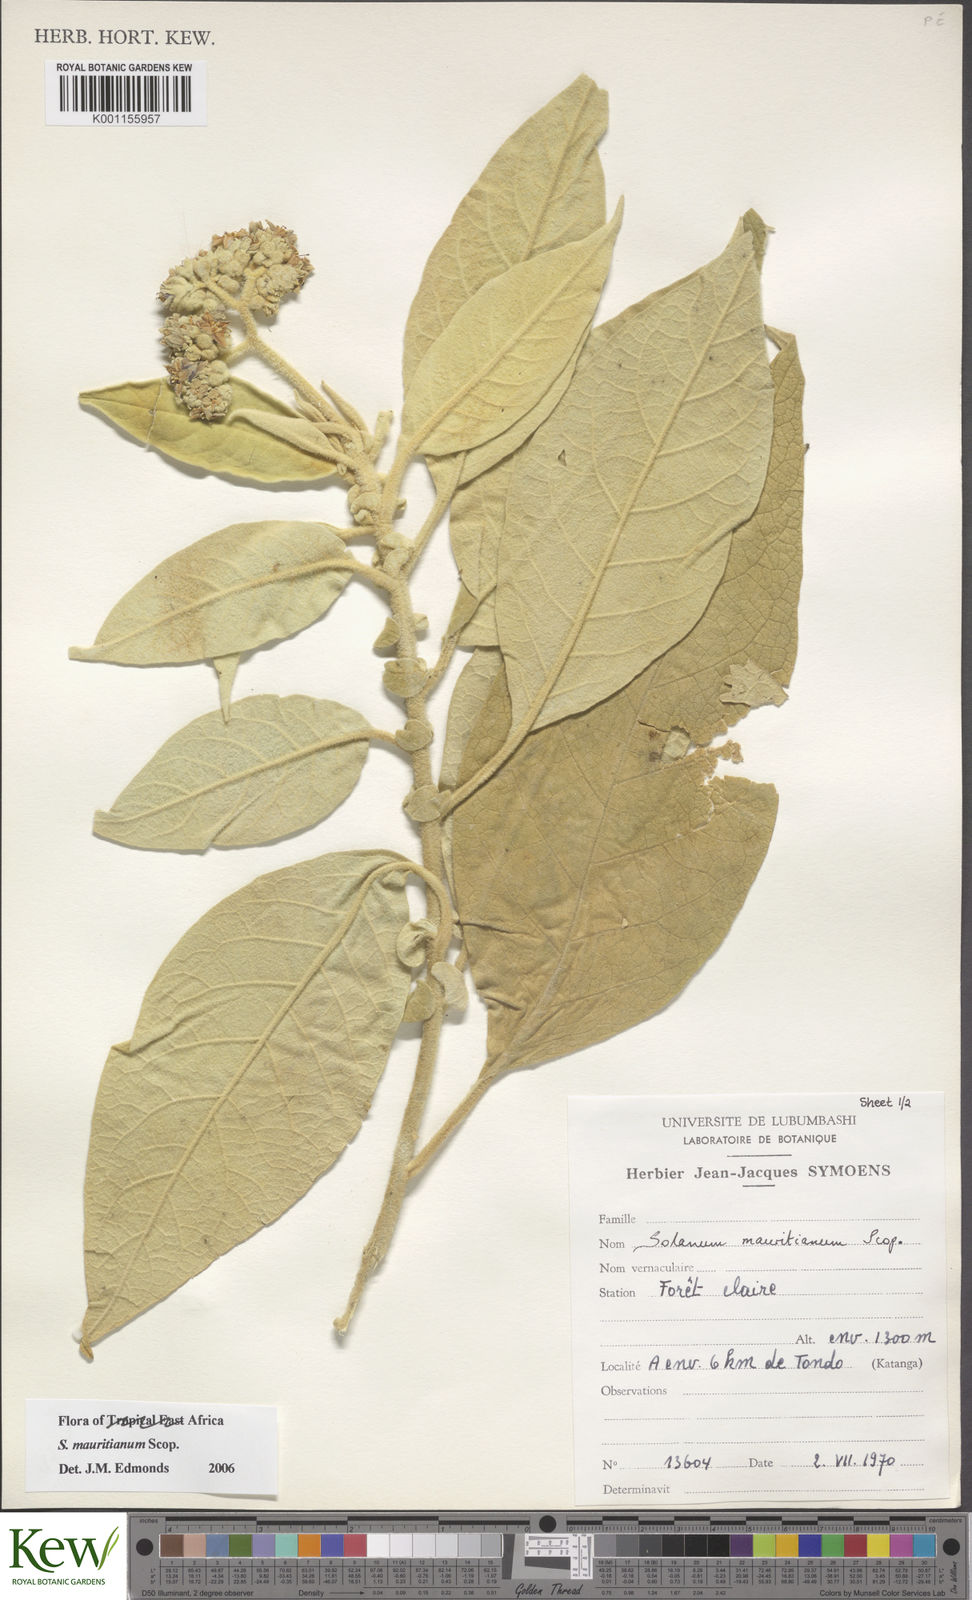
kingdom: Plantae
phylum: Tracheophyta
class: Magnoliopsida
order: Solanales
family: Solanaceae
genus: Solanum
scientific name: Solanum mauritianum
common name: Earleaf nightshade
